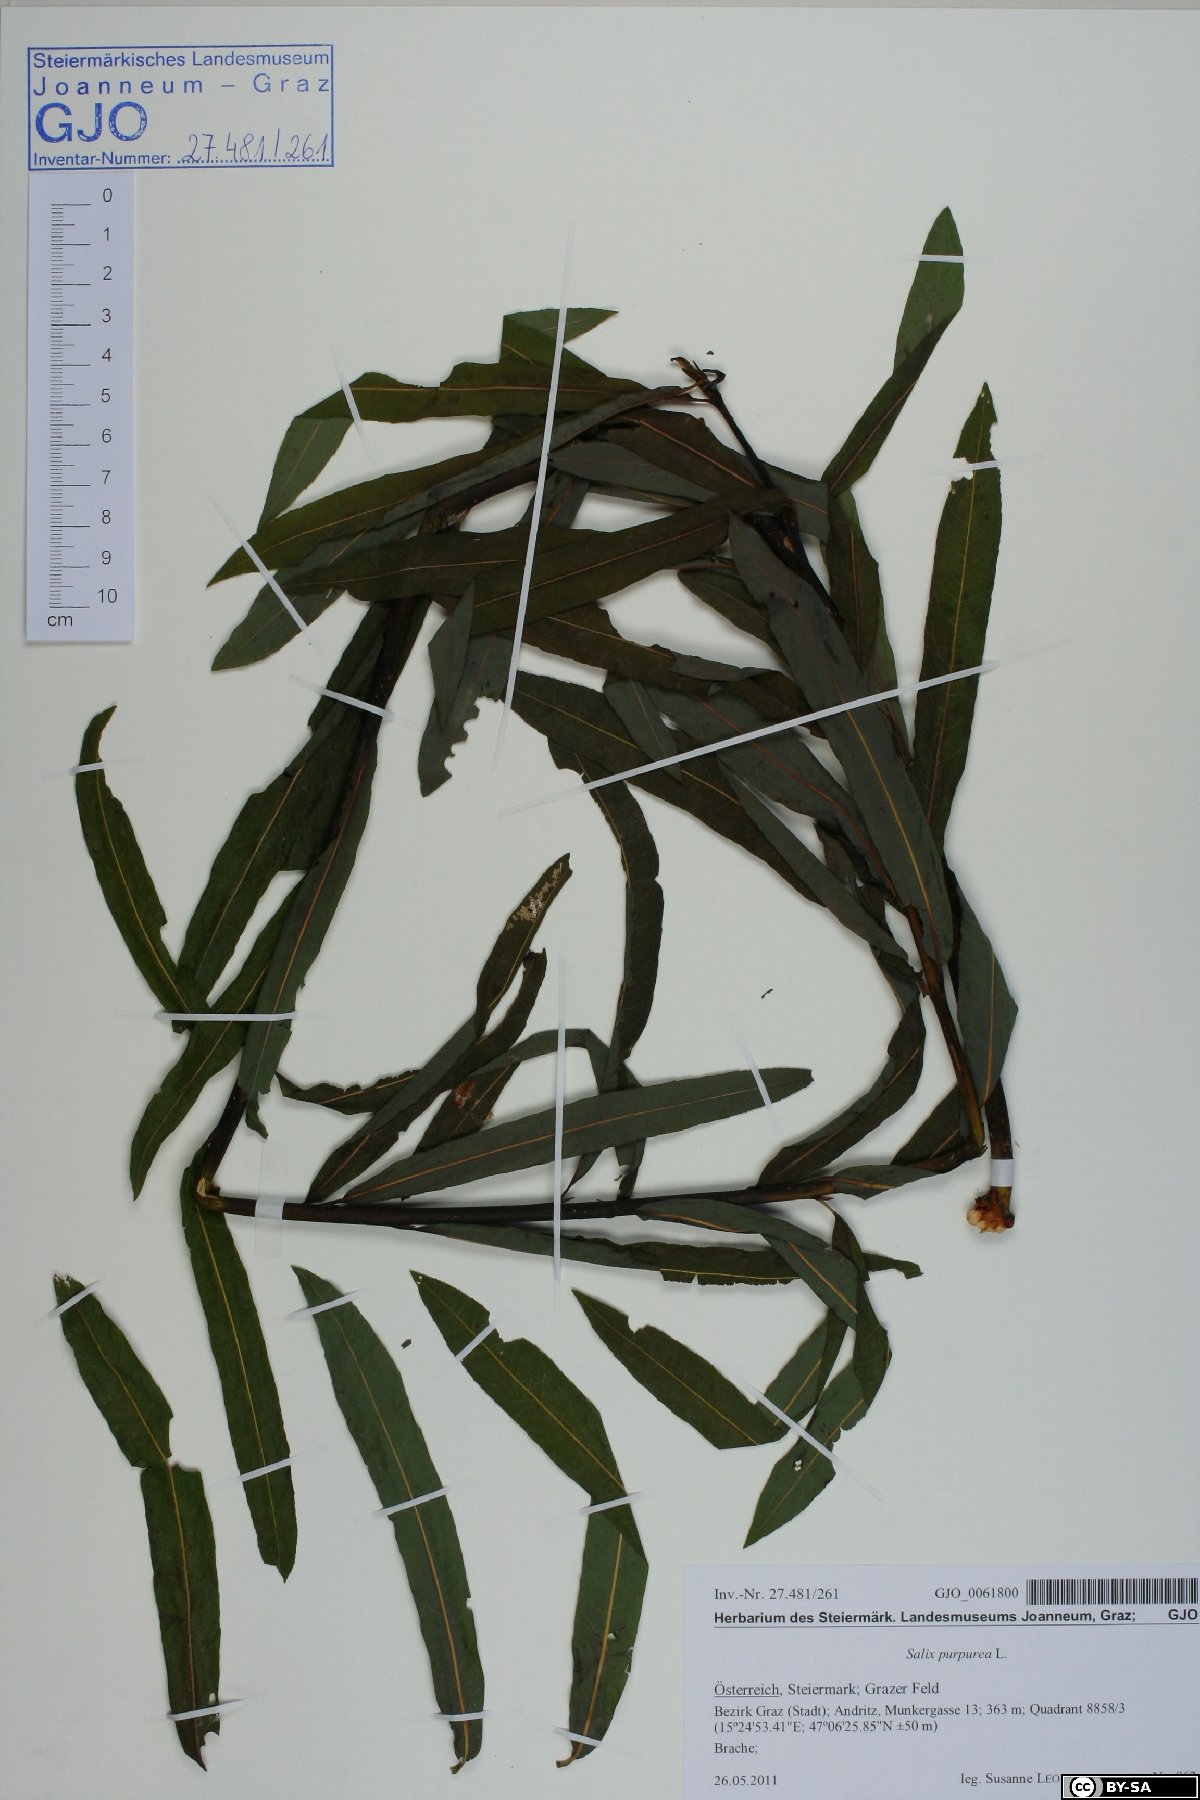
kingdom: Plantae
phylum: Tracheophyta
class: Magnoliopsida
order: Malpighiales
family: Salicaceae
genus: Salix
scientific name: Salix purpurea
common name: Purple willow
